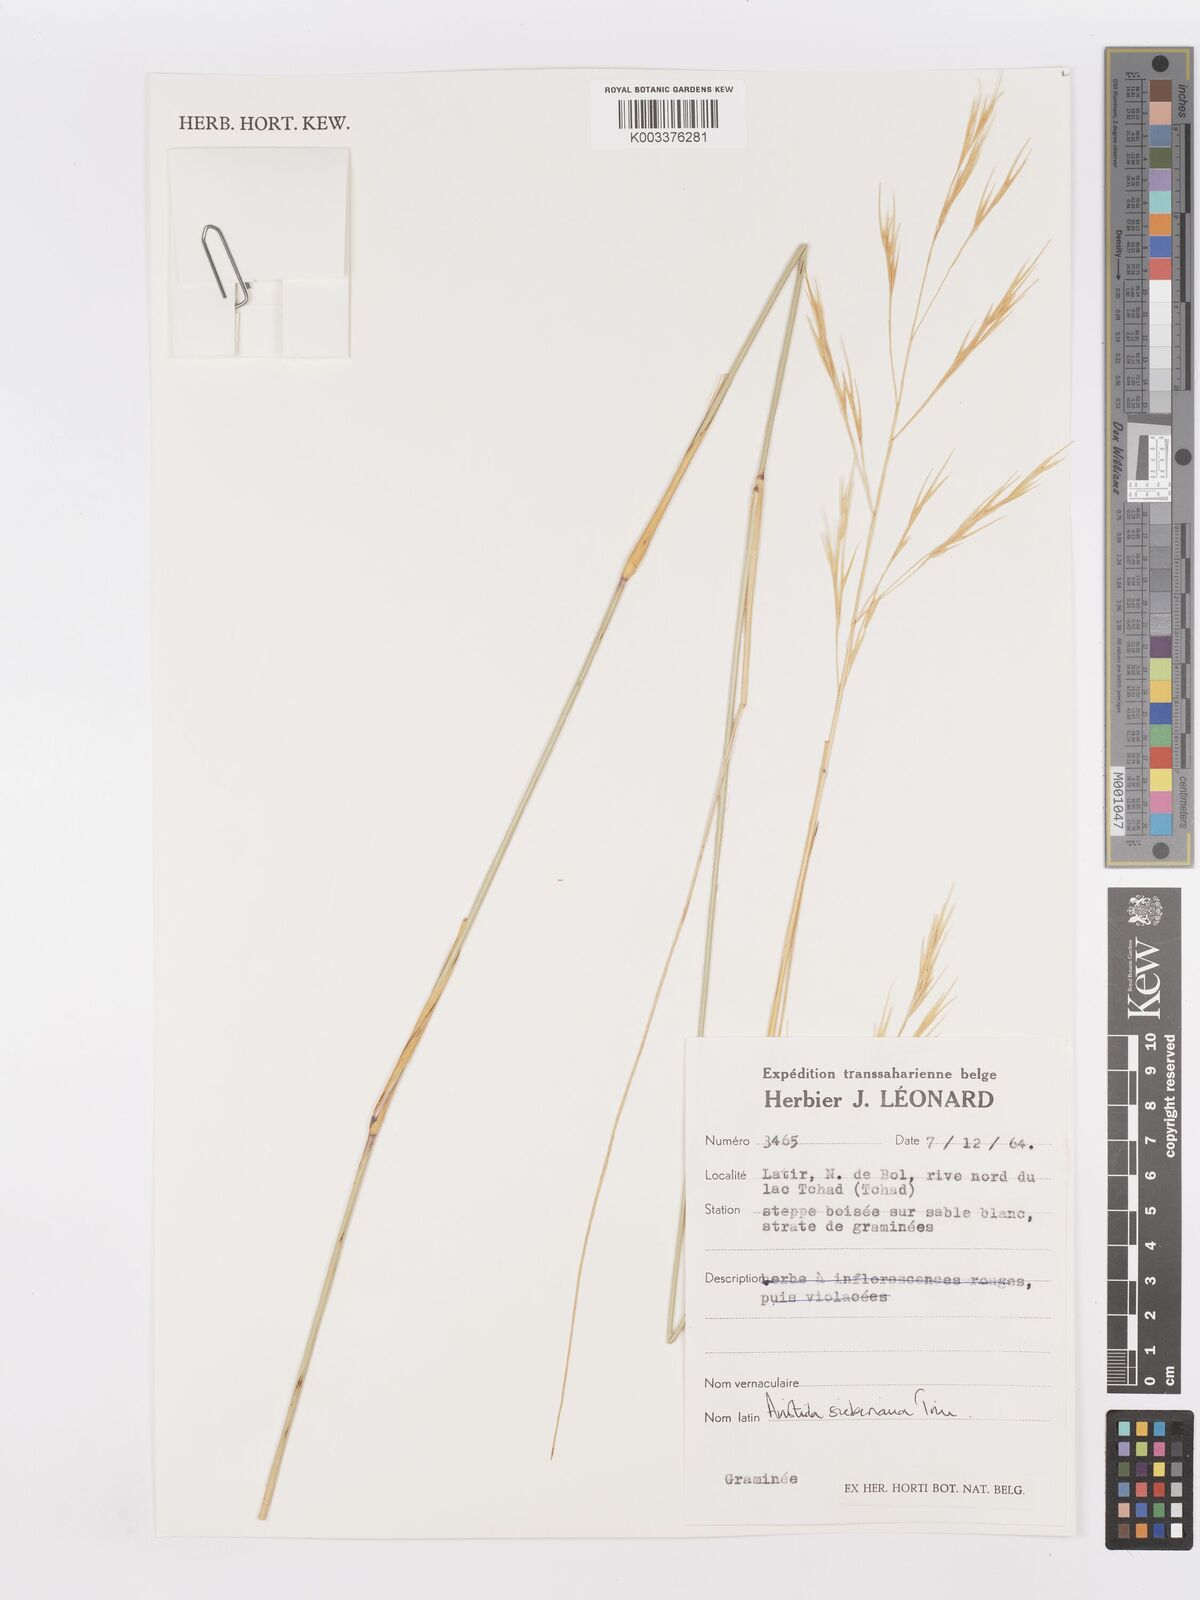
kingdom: Plantae
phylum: Tracheophyta
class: Liliopsida
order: Poales
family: Poaceae
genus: Aristida
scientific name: Aristida sieberiana
